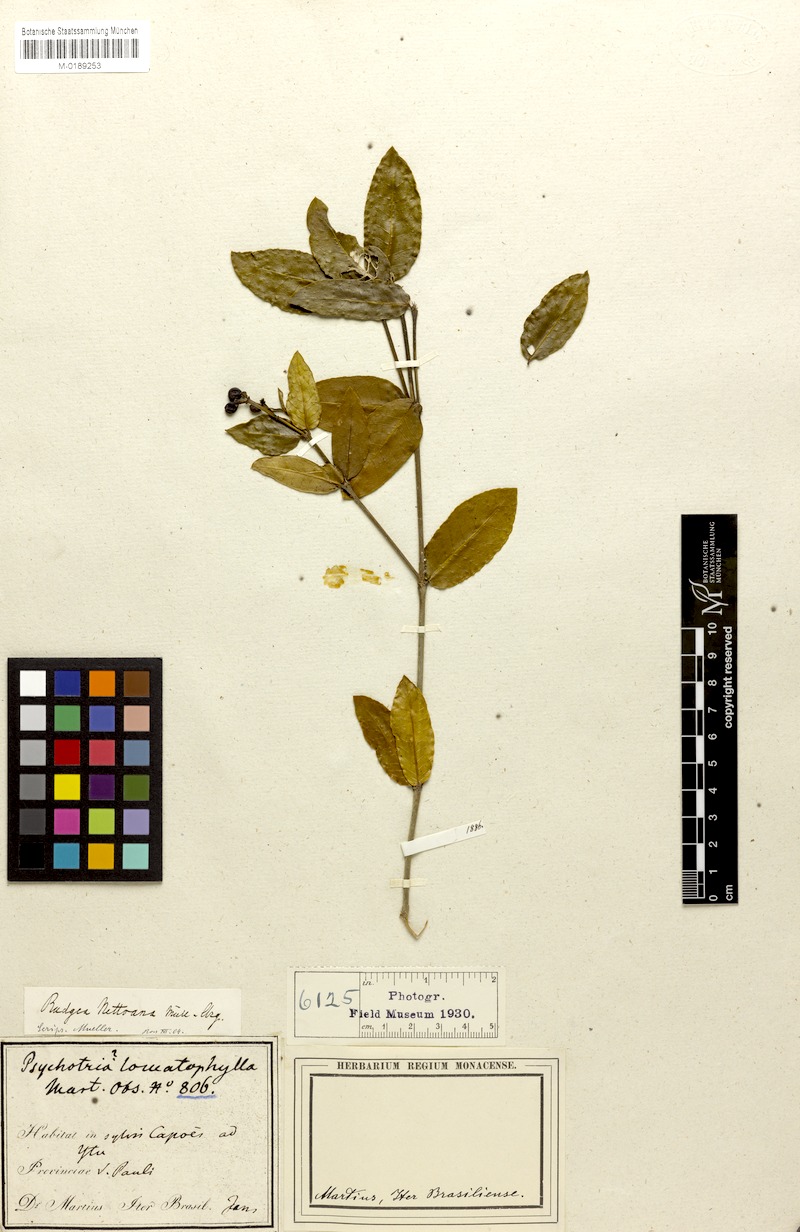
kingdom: Plantae
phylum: Tracheophyta
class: Magnoliopsida
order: Gentianales
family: Rubiaceae
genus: Rudgea
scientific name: Rudgea corymbulosa
